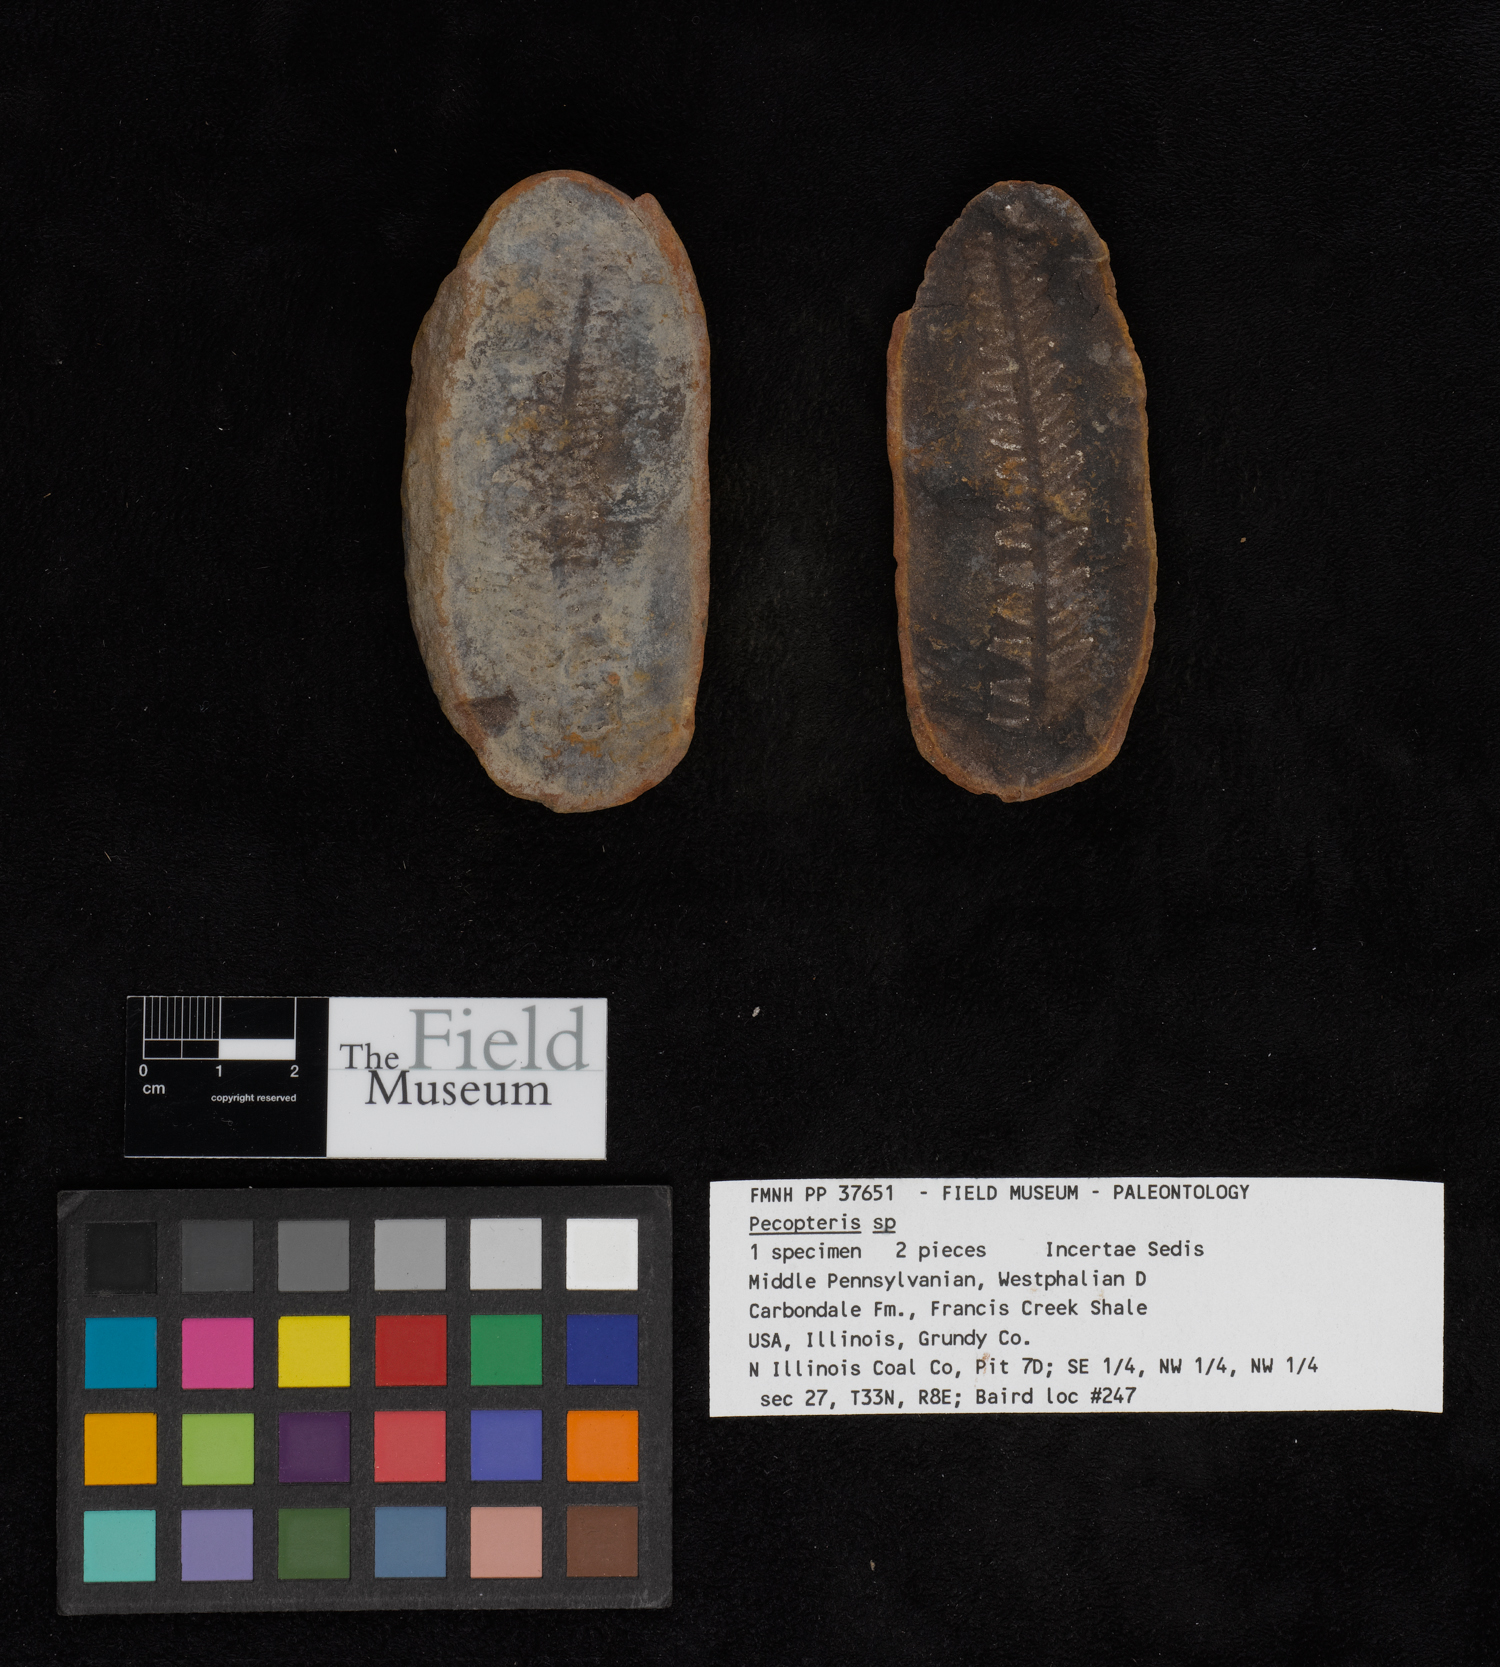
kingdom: Plantae
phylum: Tracheophyta
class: Polypodiopsida
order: Marattiales
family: Asterothecaceae
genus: Pecopteris
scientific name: Pecopteris
